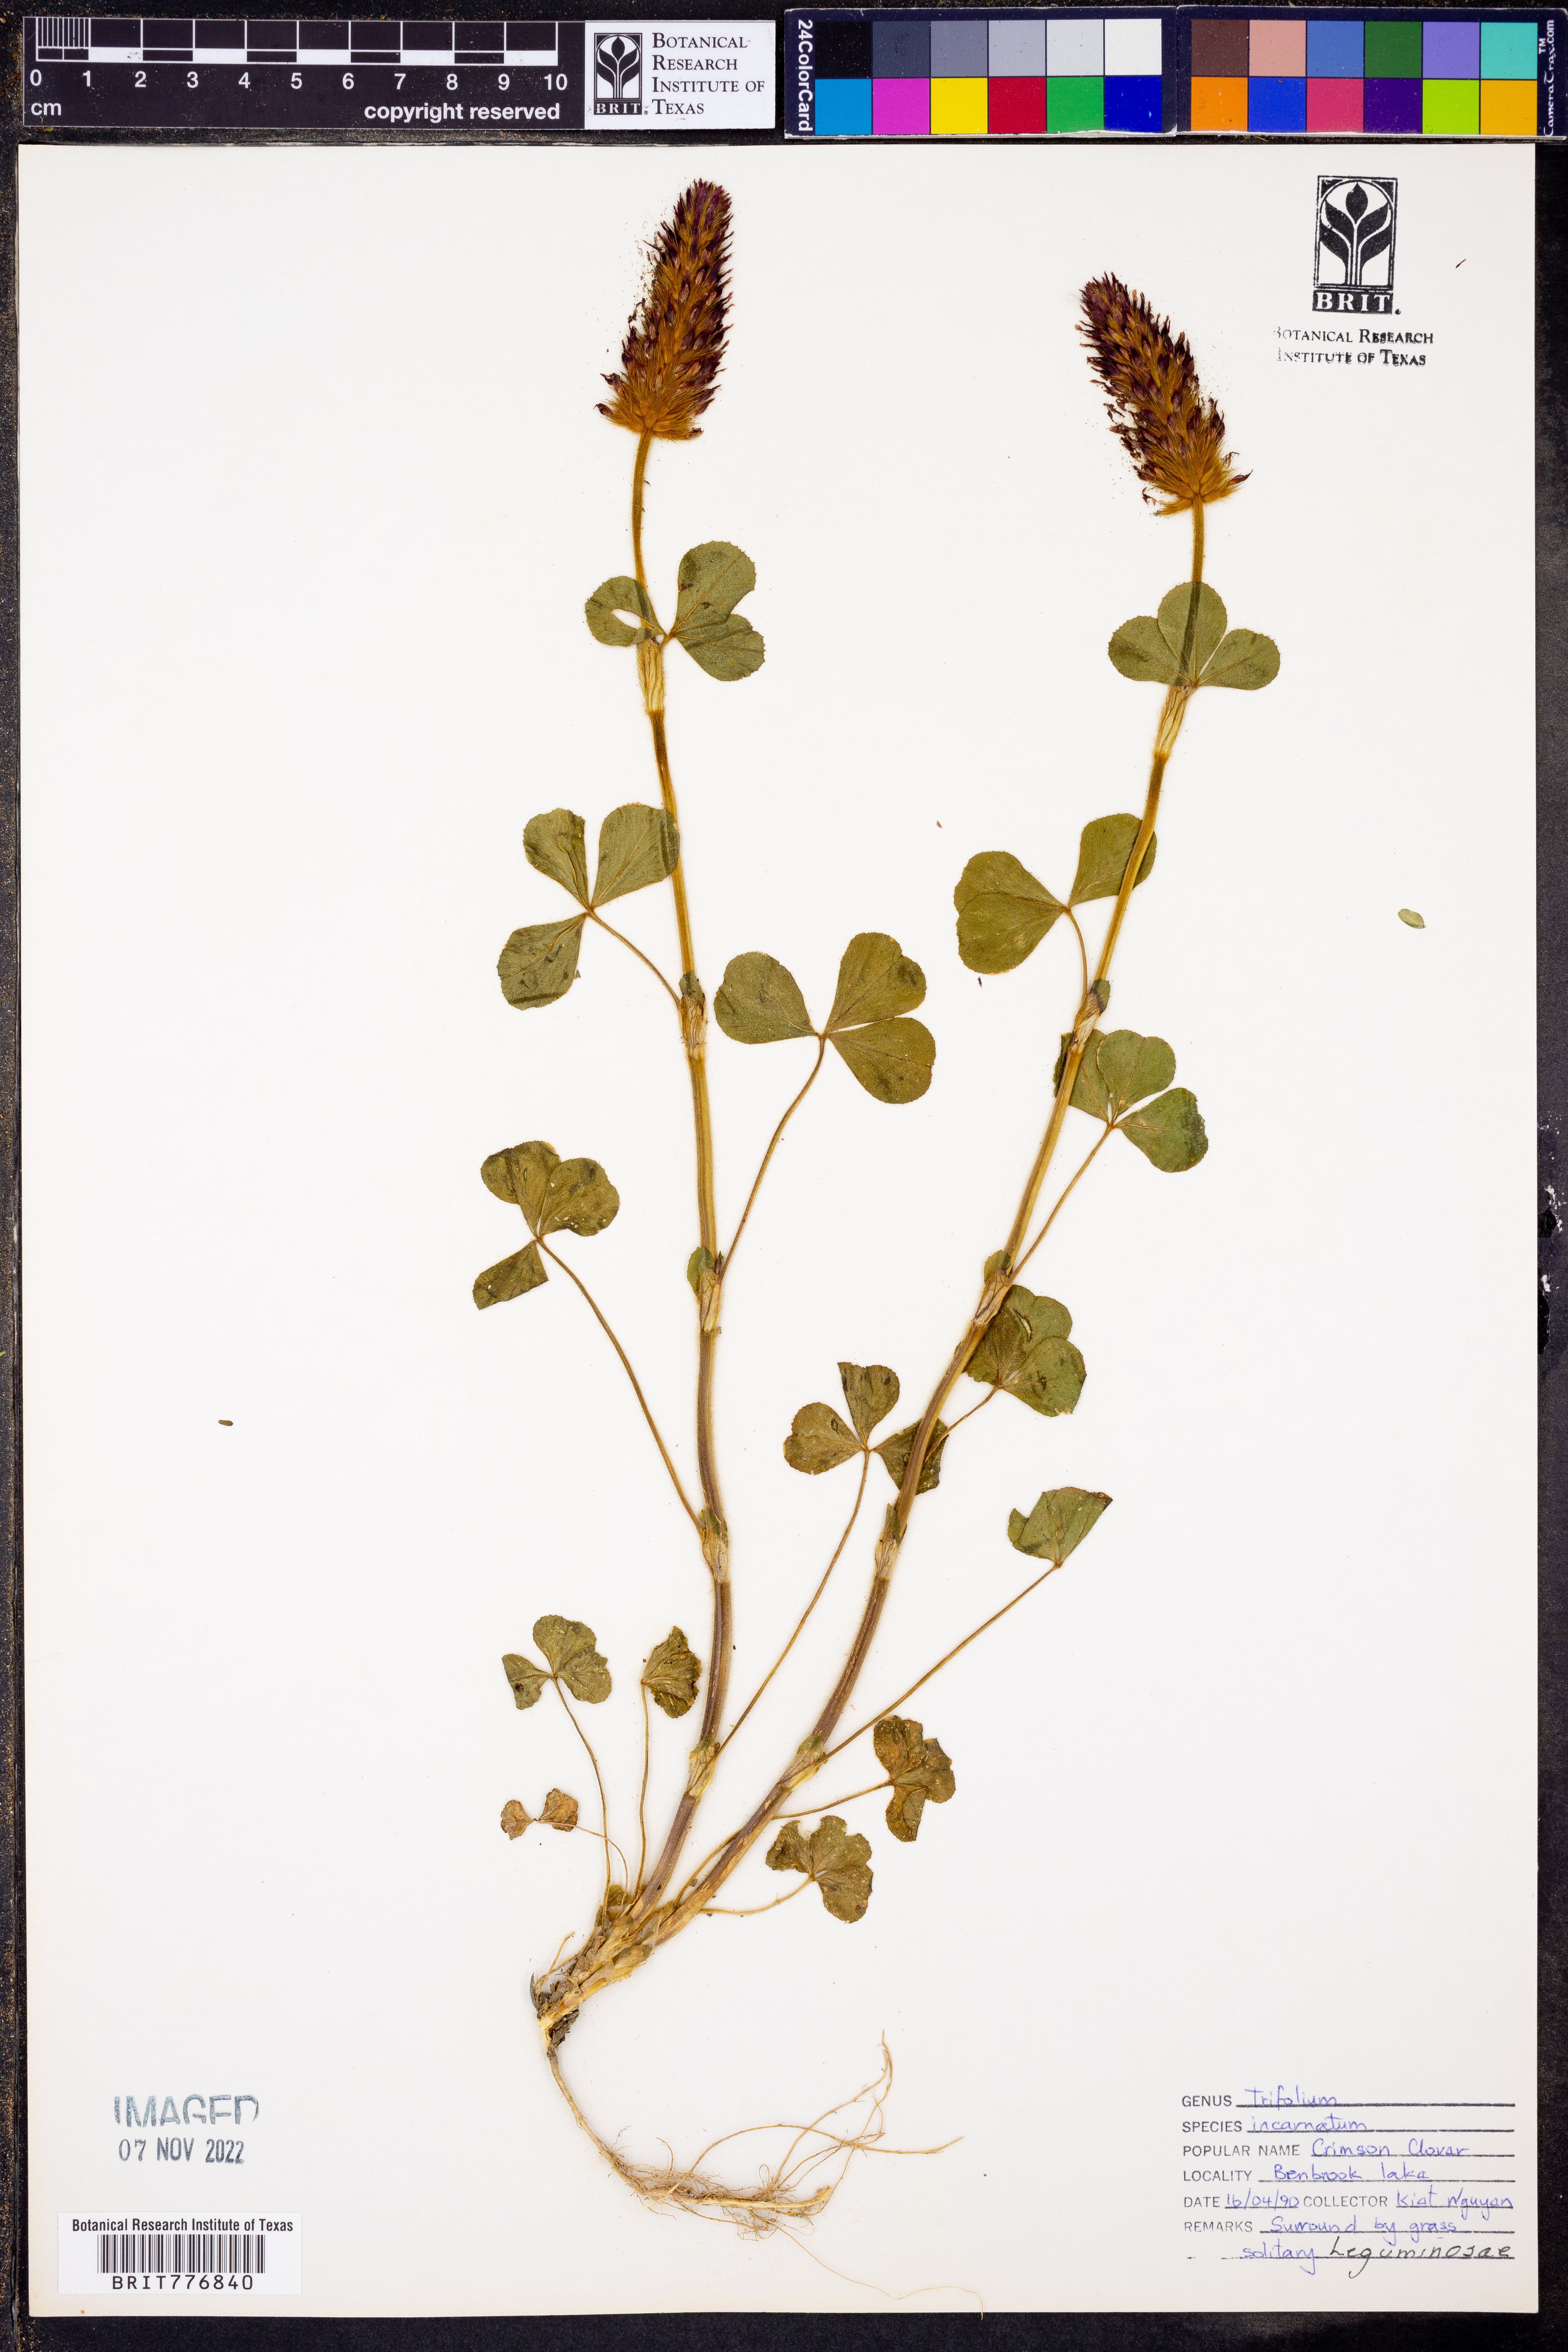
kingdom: Plantae
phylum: Tracheophyta
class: Magnoliopsida
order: Fabales
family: Fabaceae
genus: Trifolium
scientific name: Trifolium incarnatum
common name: Crimson clover
